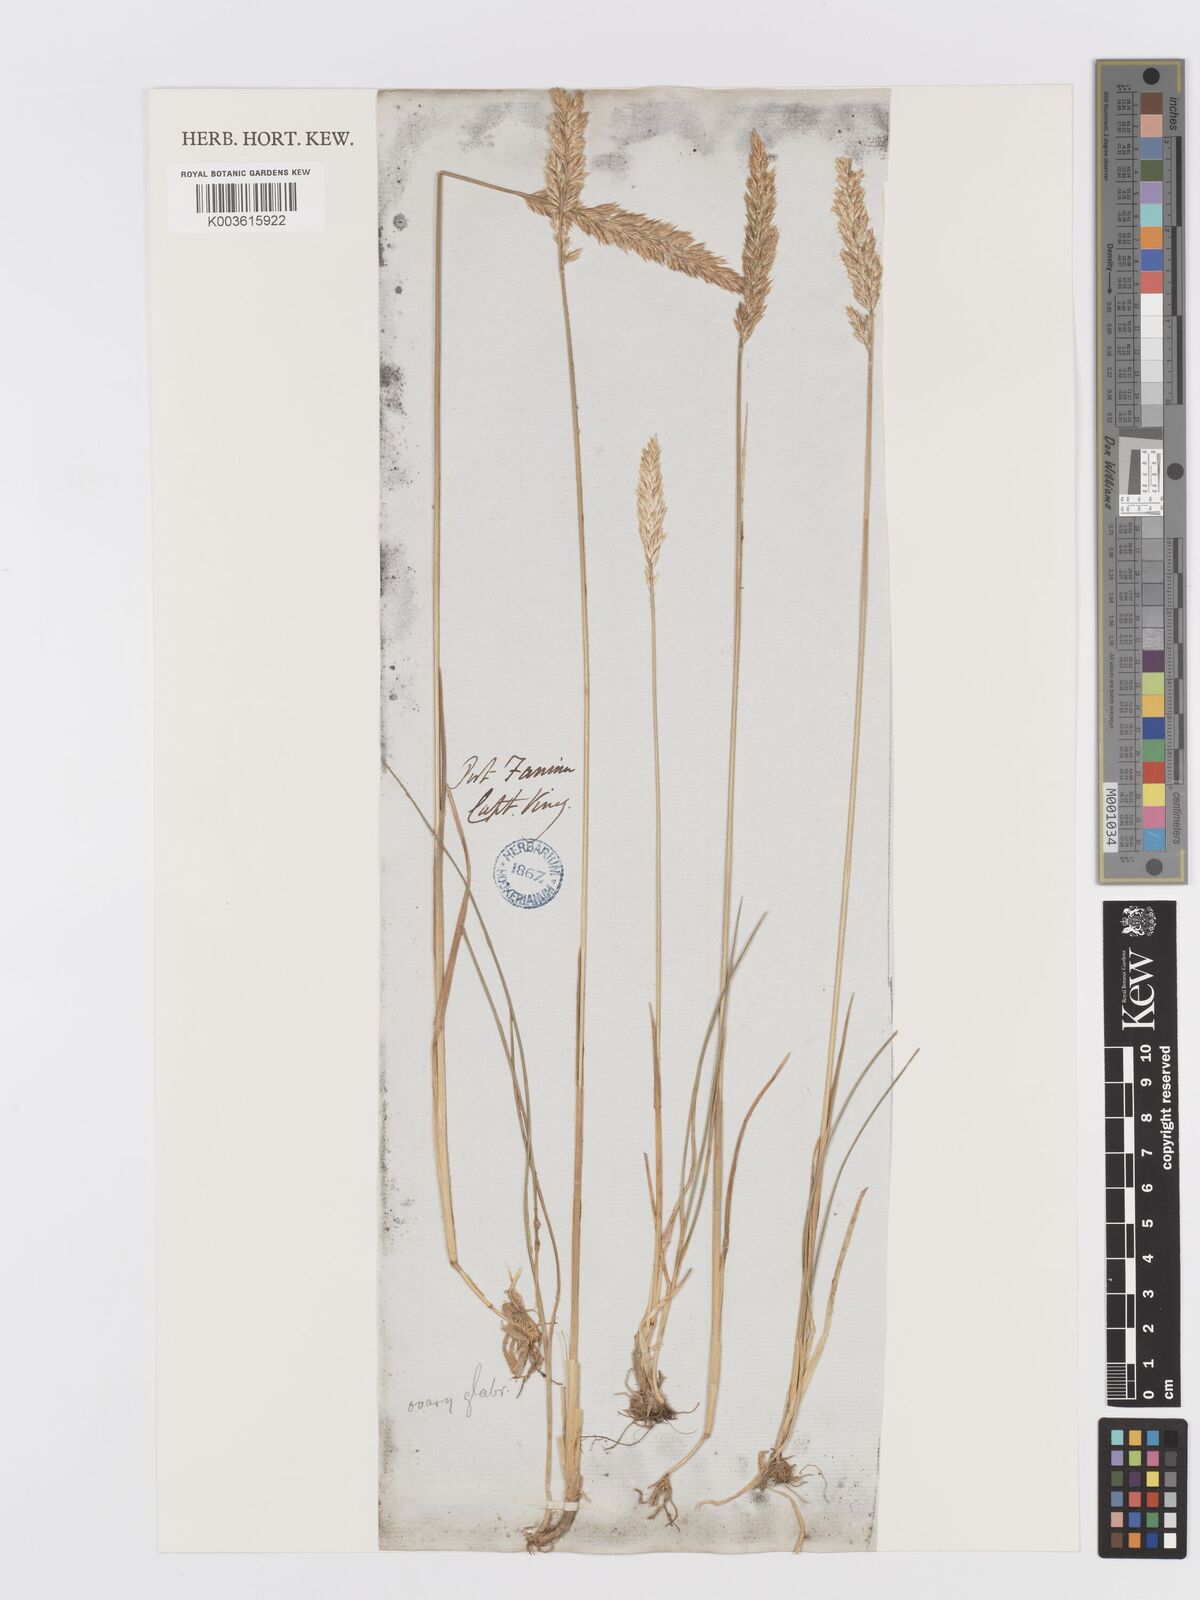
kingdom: Plantae
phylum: Tracheophyta
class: Liliopsida
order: Poales
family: Poaceae
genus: Koeleria
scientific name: Koeleria spicata
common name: Mountain trisetum
